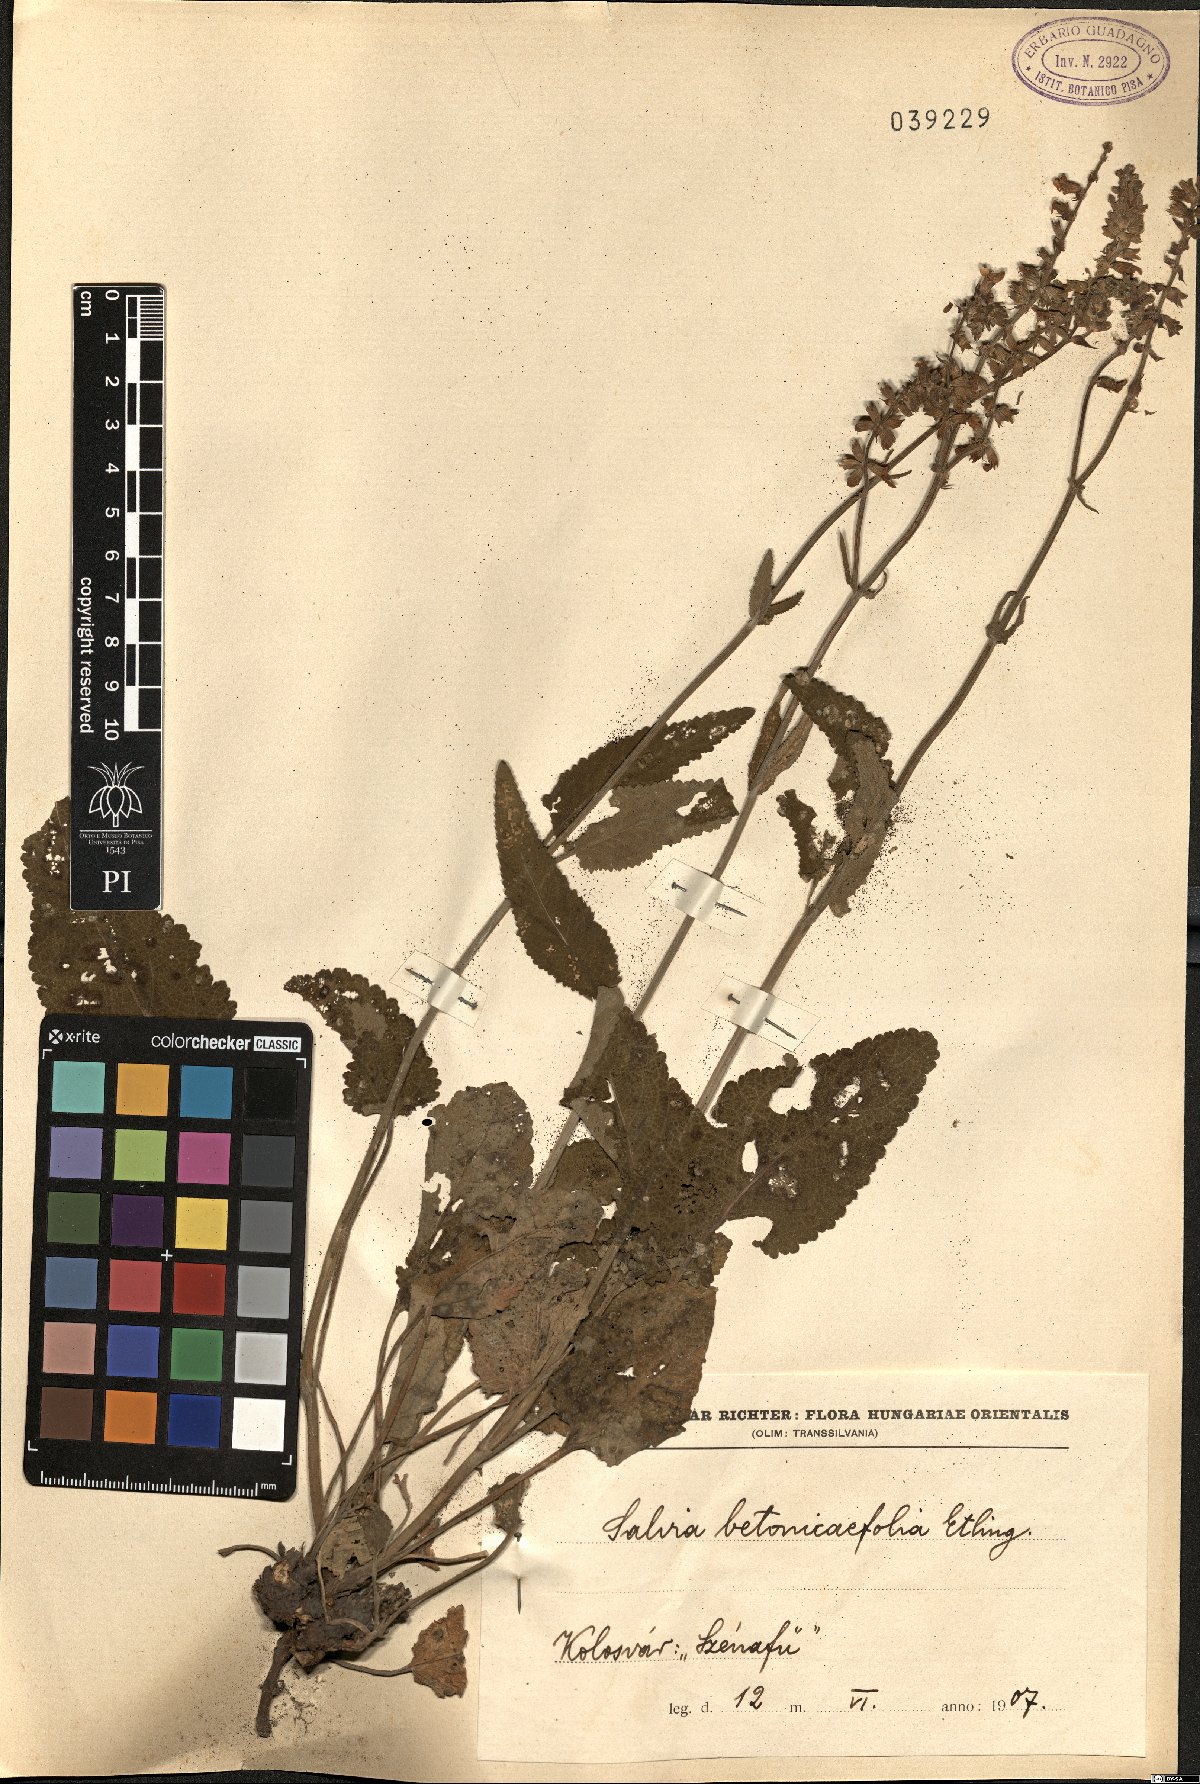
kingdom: Plantae
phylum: Tracheophyta
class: Magnoliopsida
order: Lamiales
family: Lamiaceae
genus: Salvia
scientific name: Salvia nutans
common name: Nodding sage
